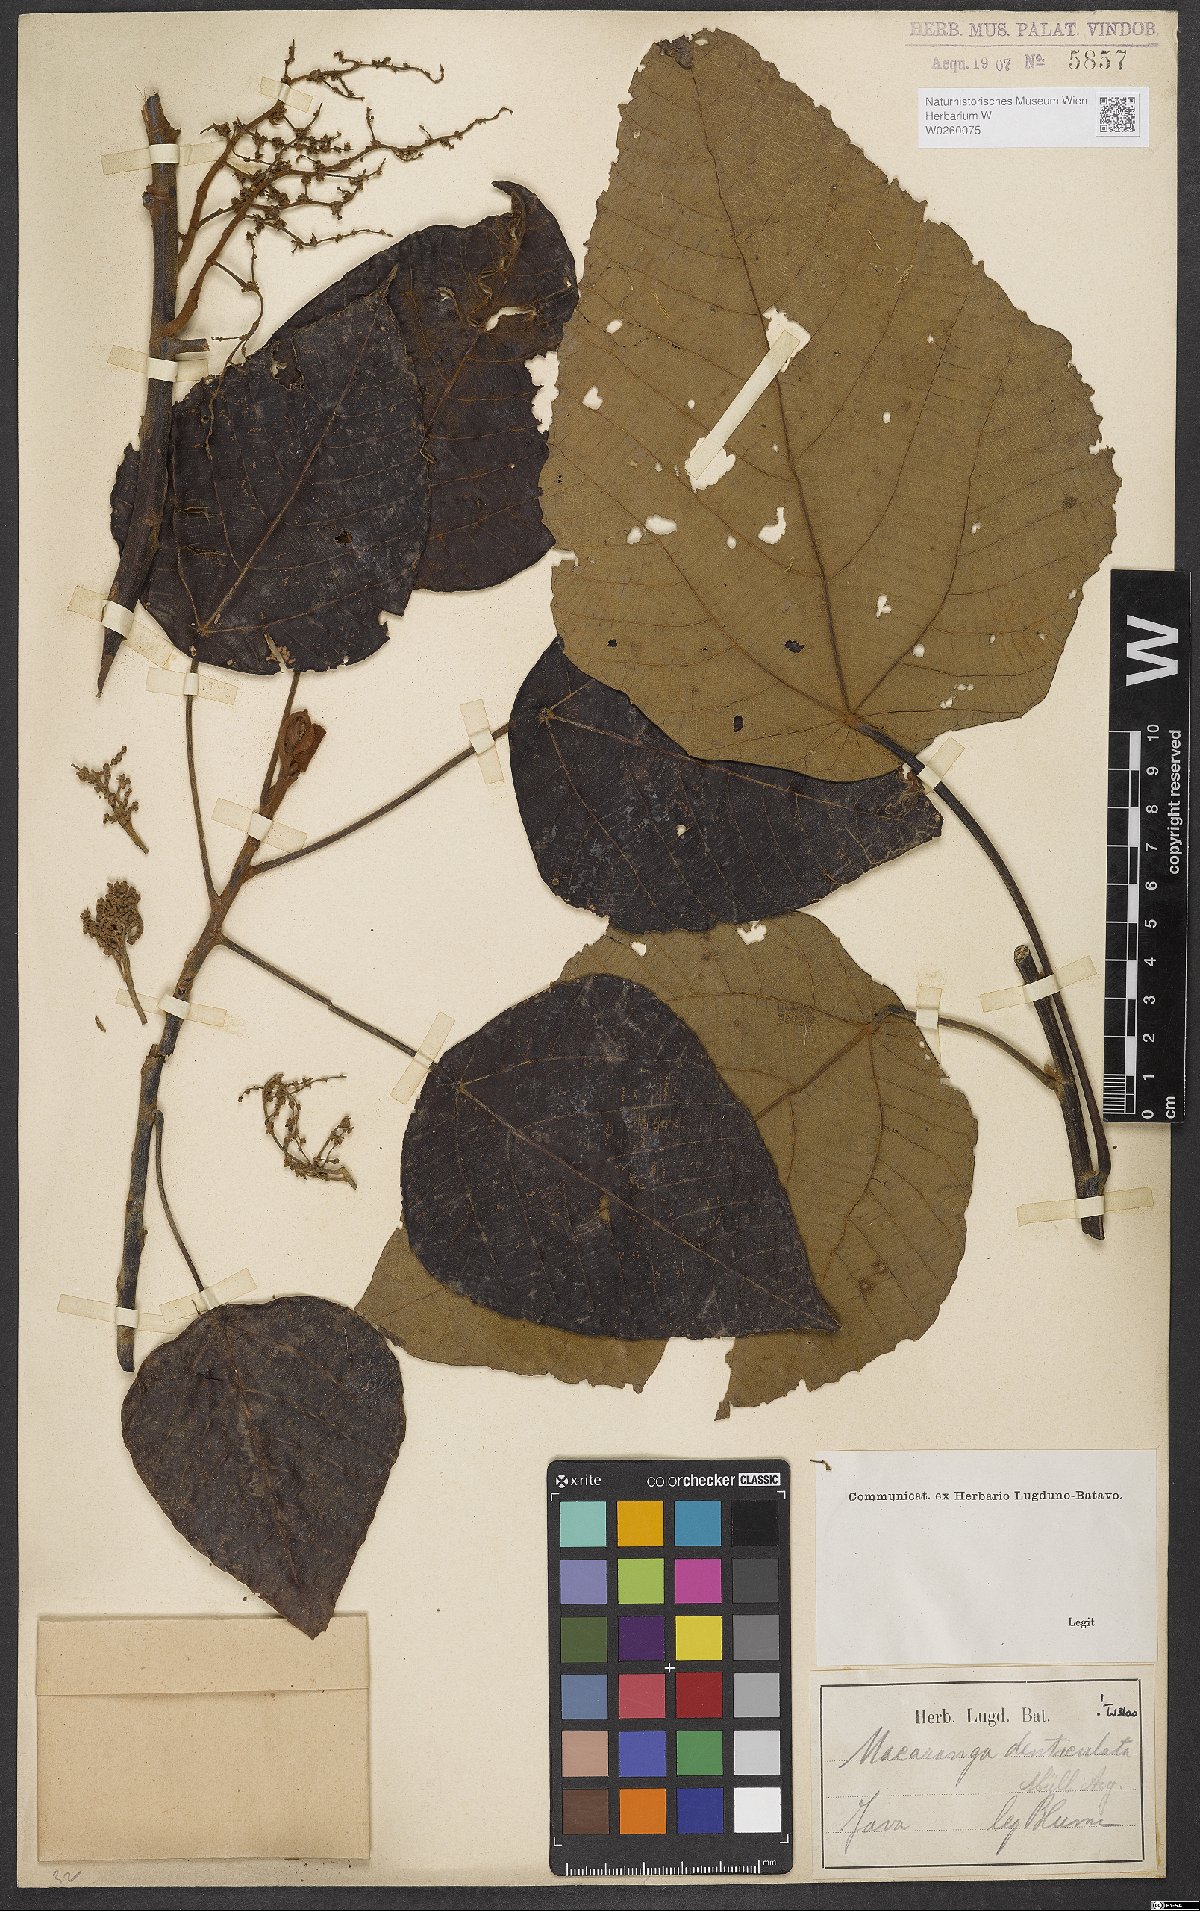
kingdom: Plantae
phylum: Tracheophyta
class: Magnoliopsida
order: Malpighiales
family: Euphorbiaceae
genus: Macaranga
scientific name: Macaranga denticulata
